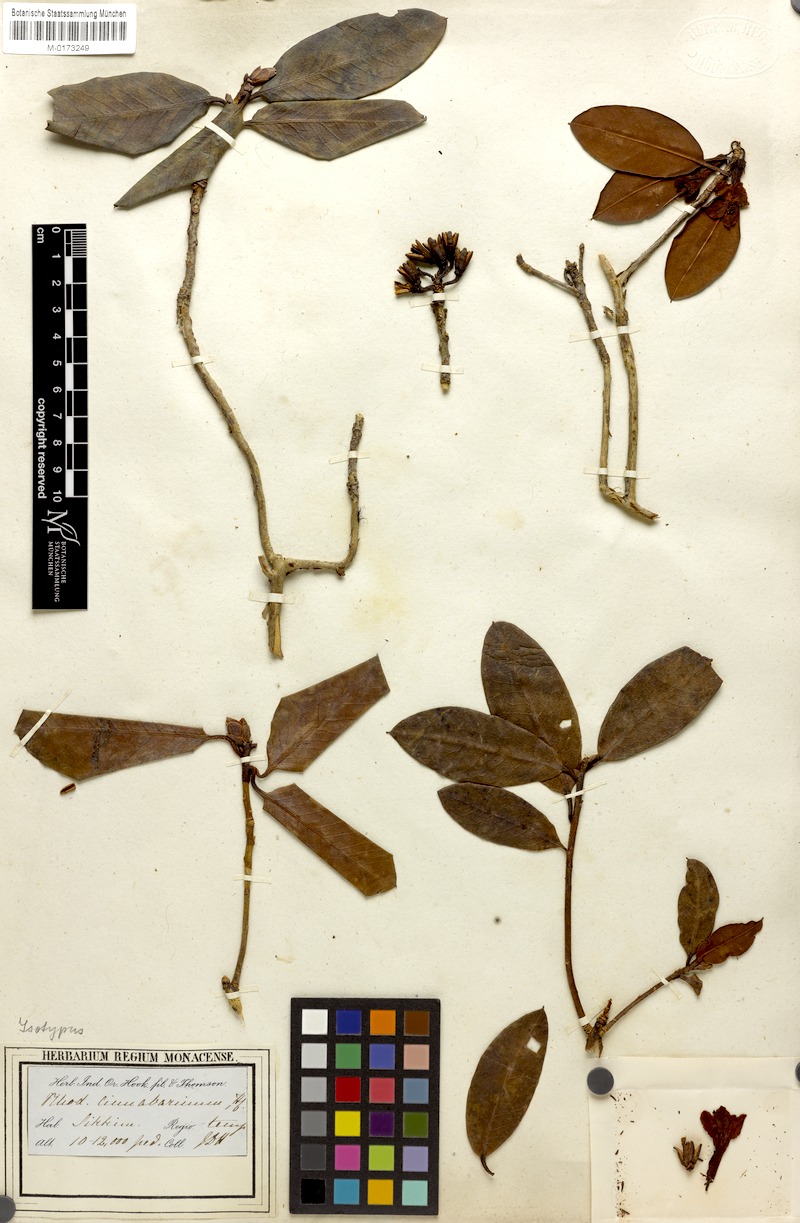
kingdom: Plantae
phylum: Tracheophyta
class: Magnoliopsida
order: Ericales
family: Ericaceae
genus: Rhododendron
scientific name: Rhododendron cinnabarinum
